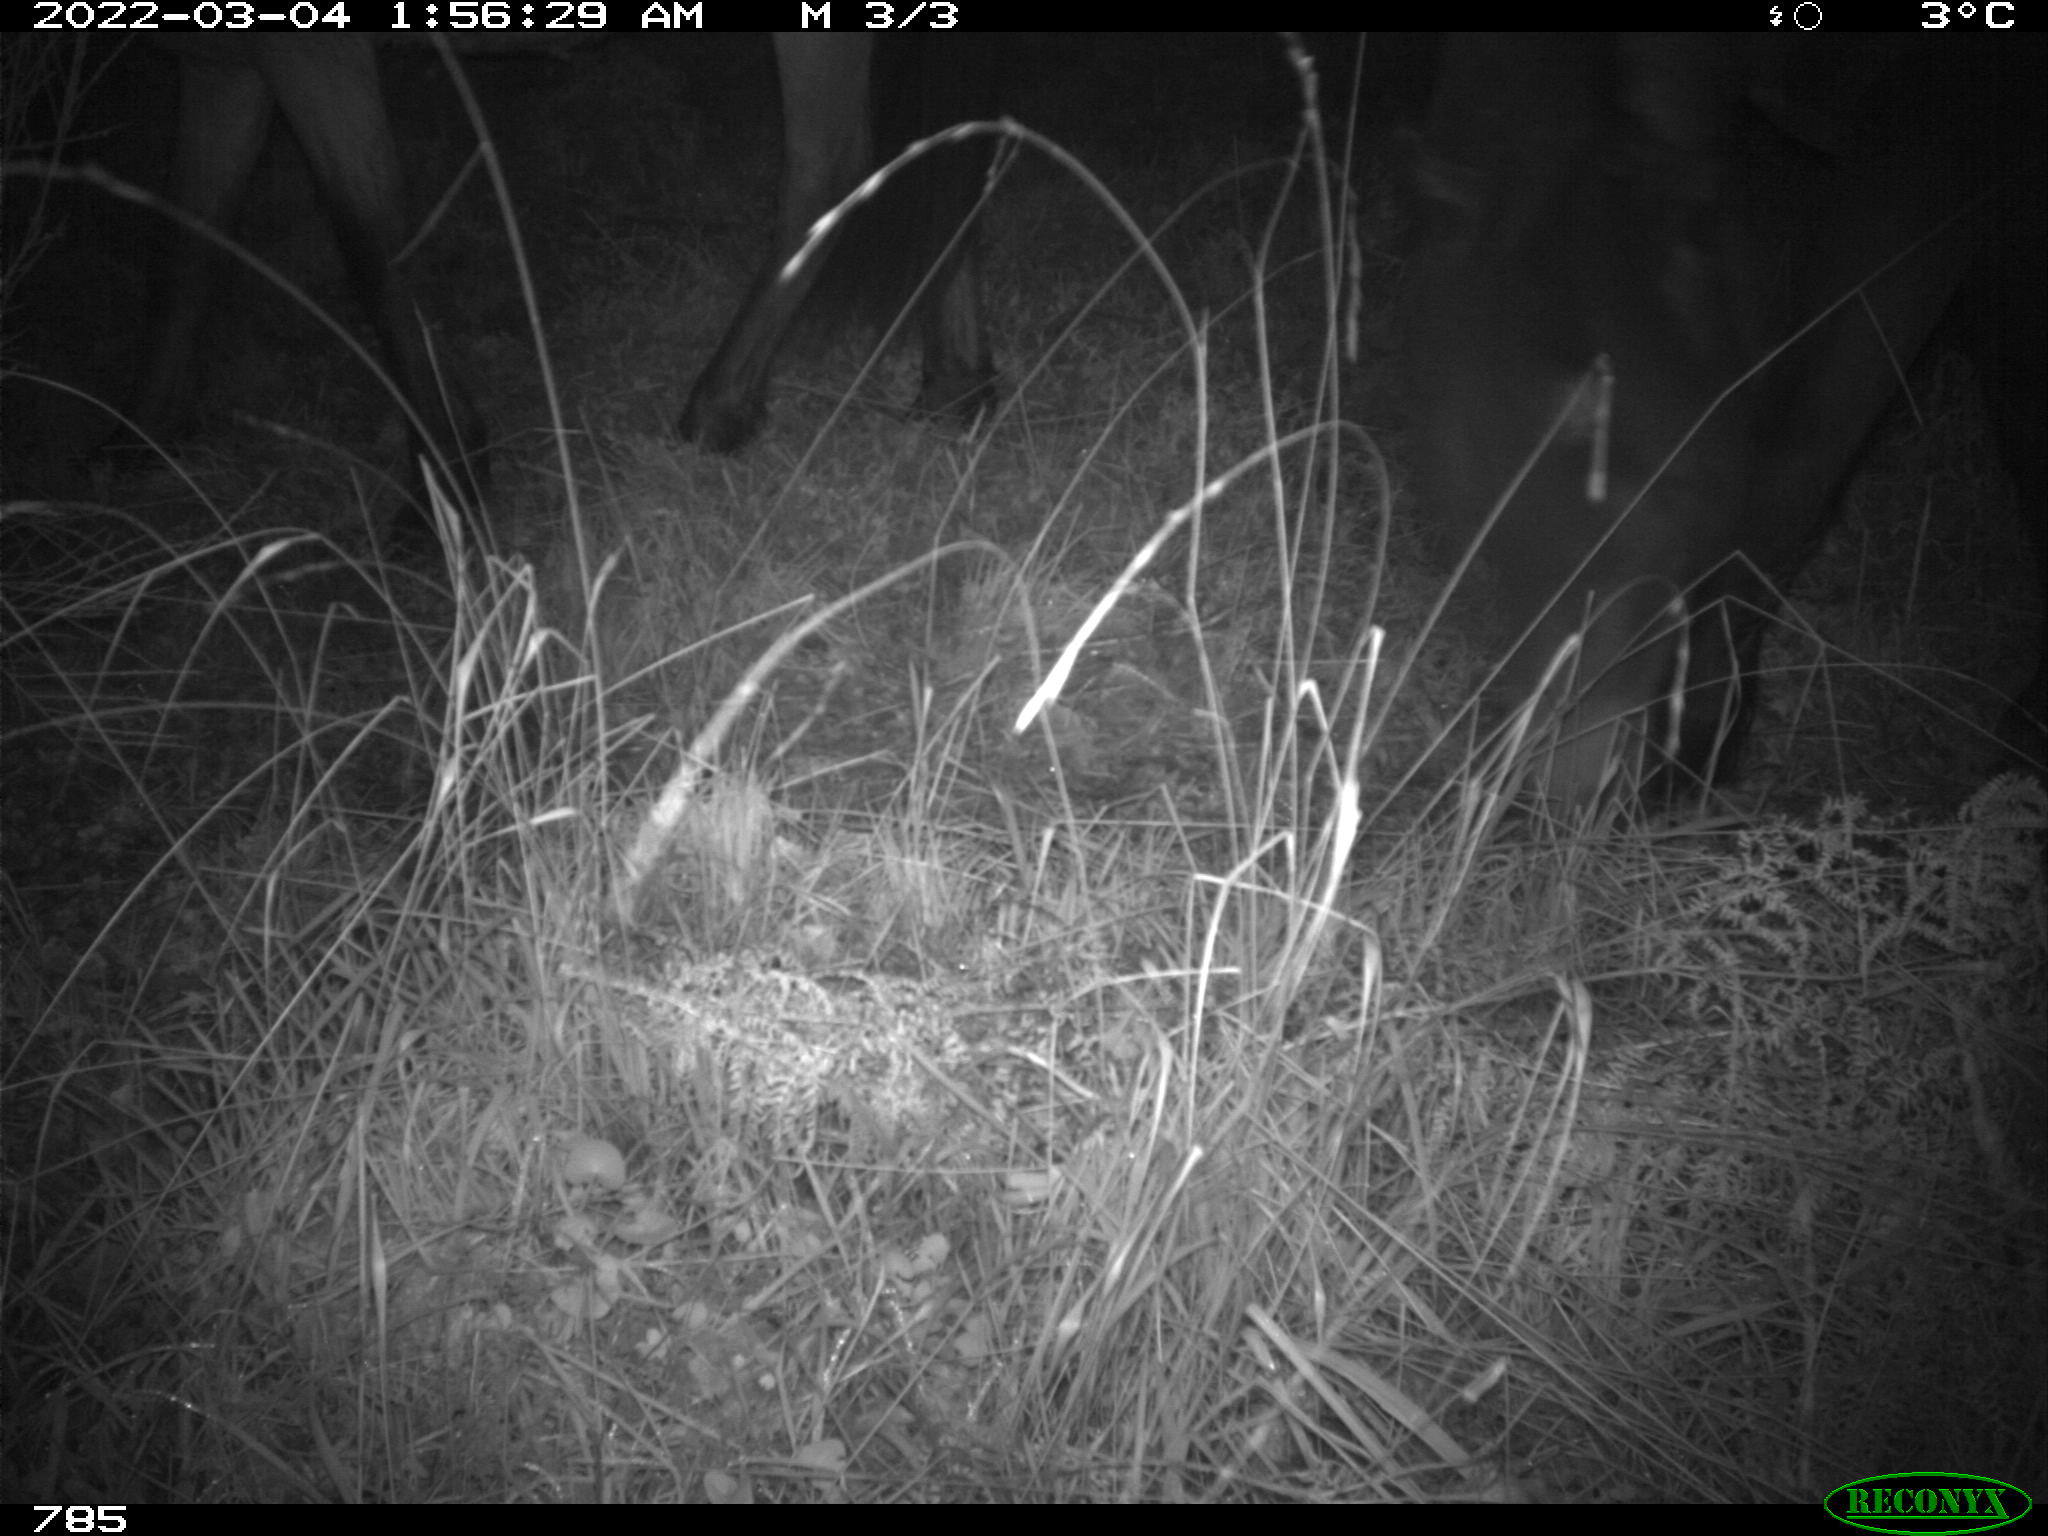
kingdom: Animalia
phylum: Chordata
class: Mammalia
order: Perissodactyla
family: Equidae
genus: Equus
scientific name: Equus caballus
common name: Horse
